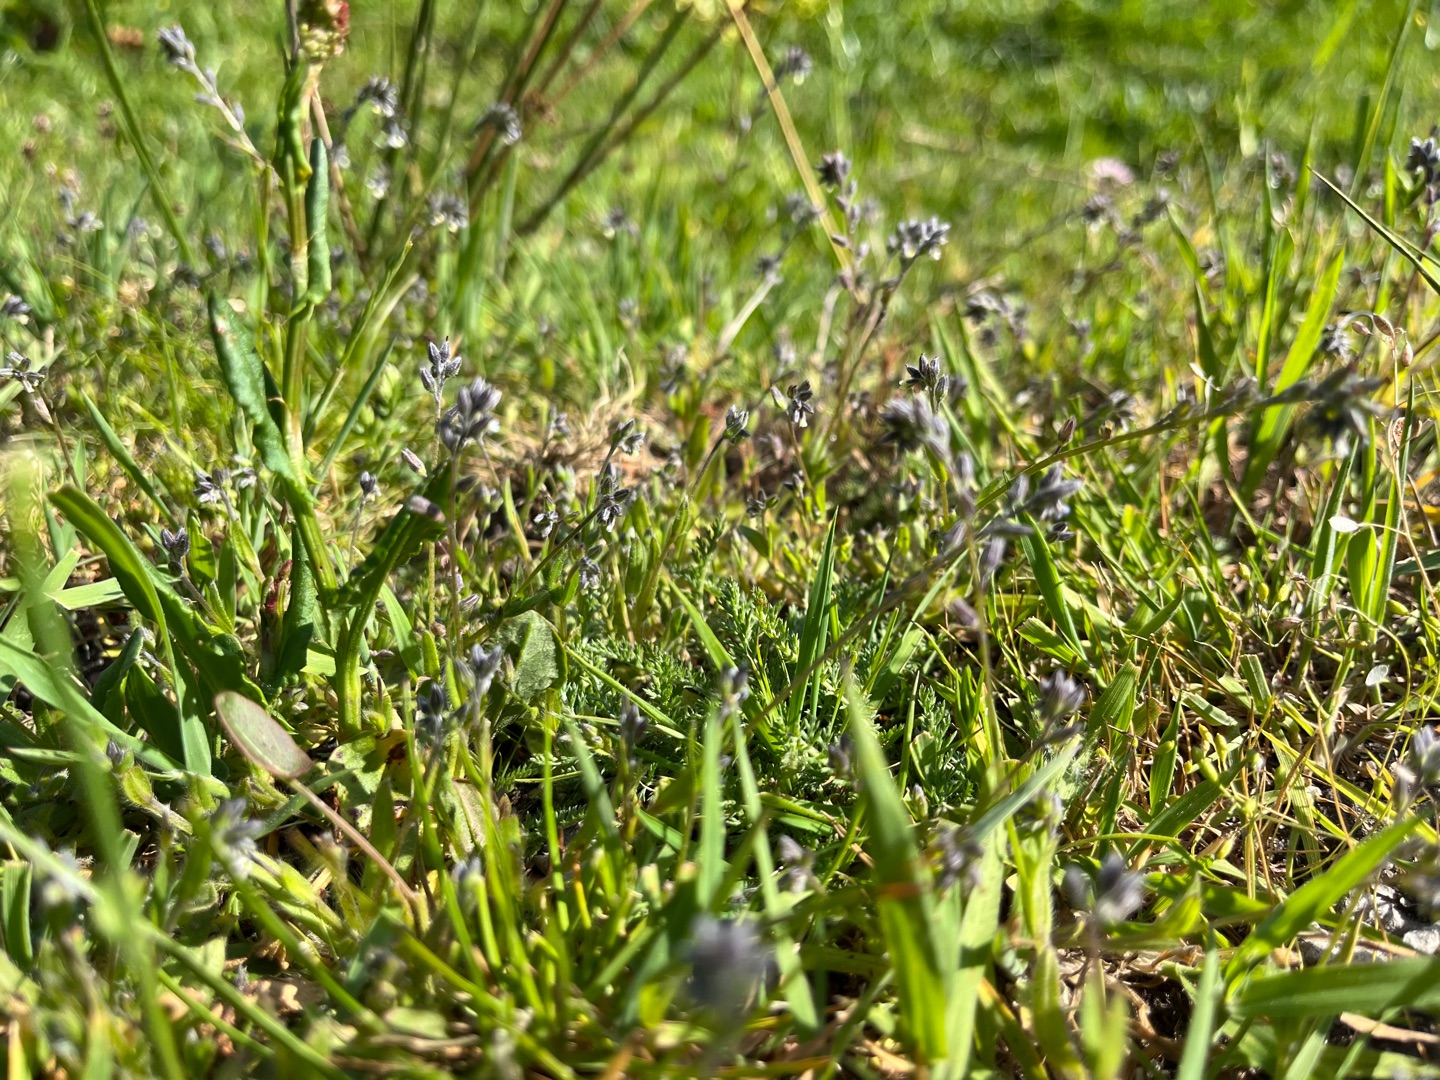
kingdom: Plantae
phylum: Tracheophyta
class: Magnoliopsida
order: Boraginales
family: Boraginaceae
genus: Myosotis
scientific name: Myosotis discolor
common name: Forskelligfarvet forglemmigej
